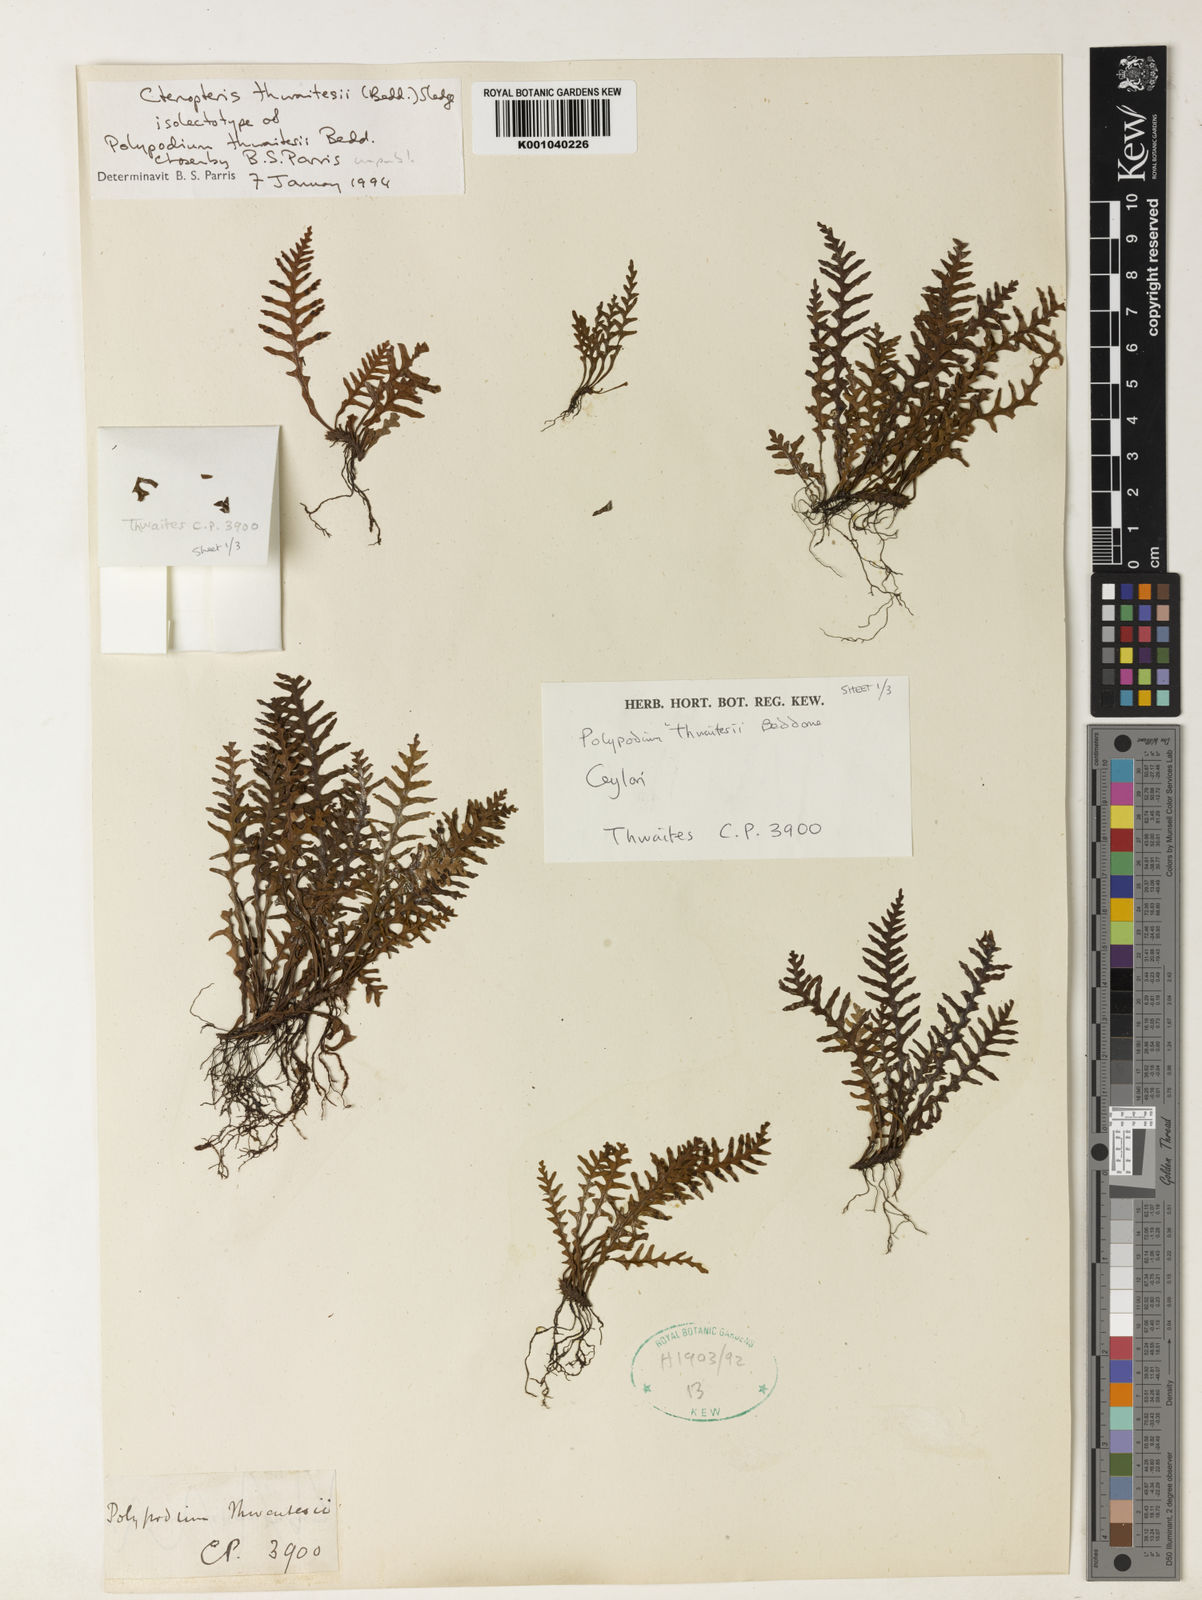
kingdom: Plantae
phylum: Tracheophyta
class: Polypodiopsida
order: Polypodiales
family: Polypodiaceae
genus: Ctenopterella
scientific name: Ctenopterella thwaitesii
